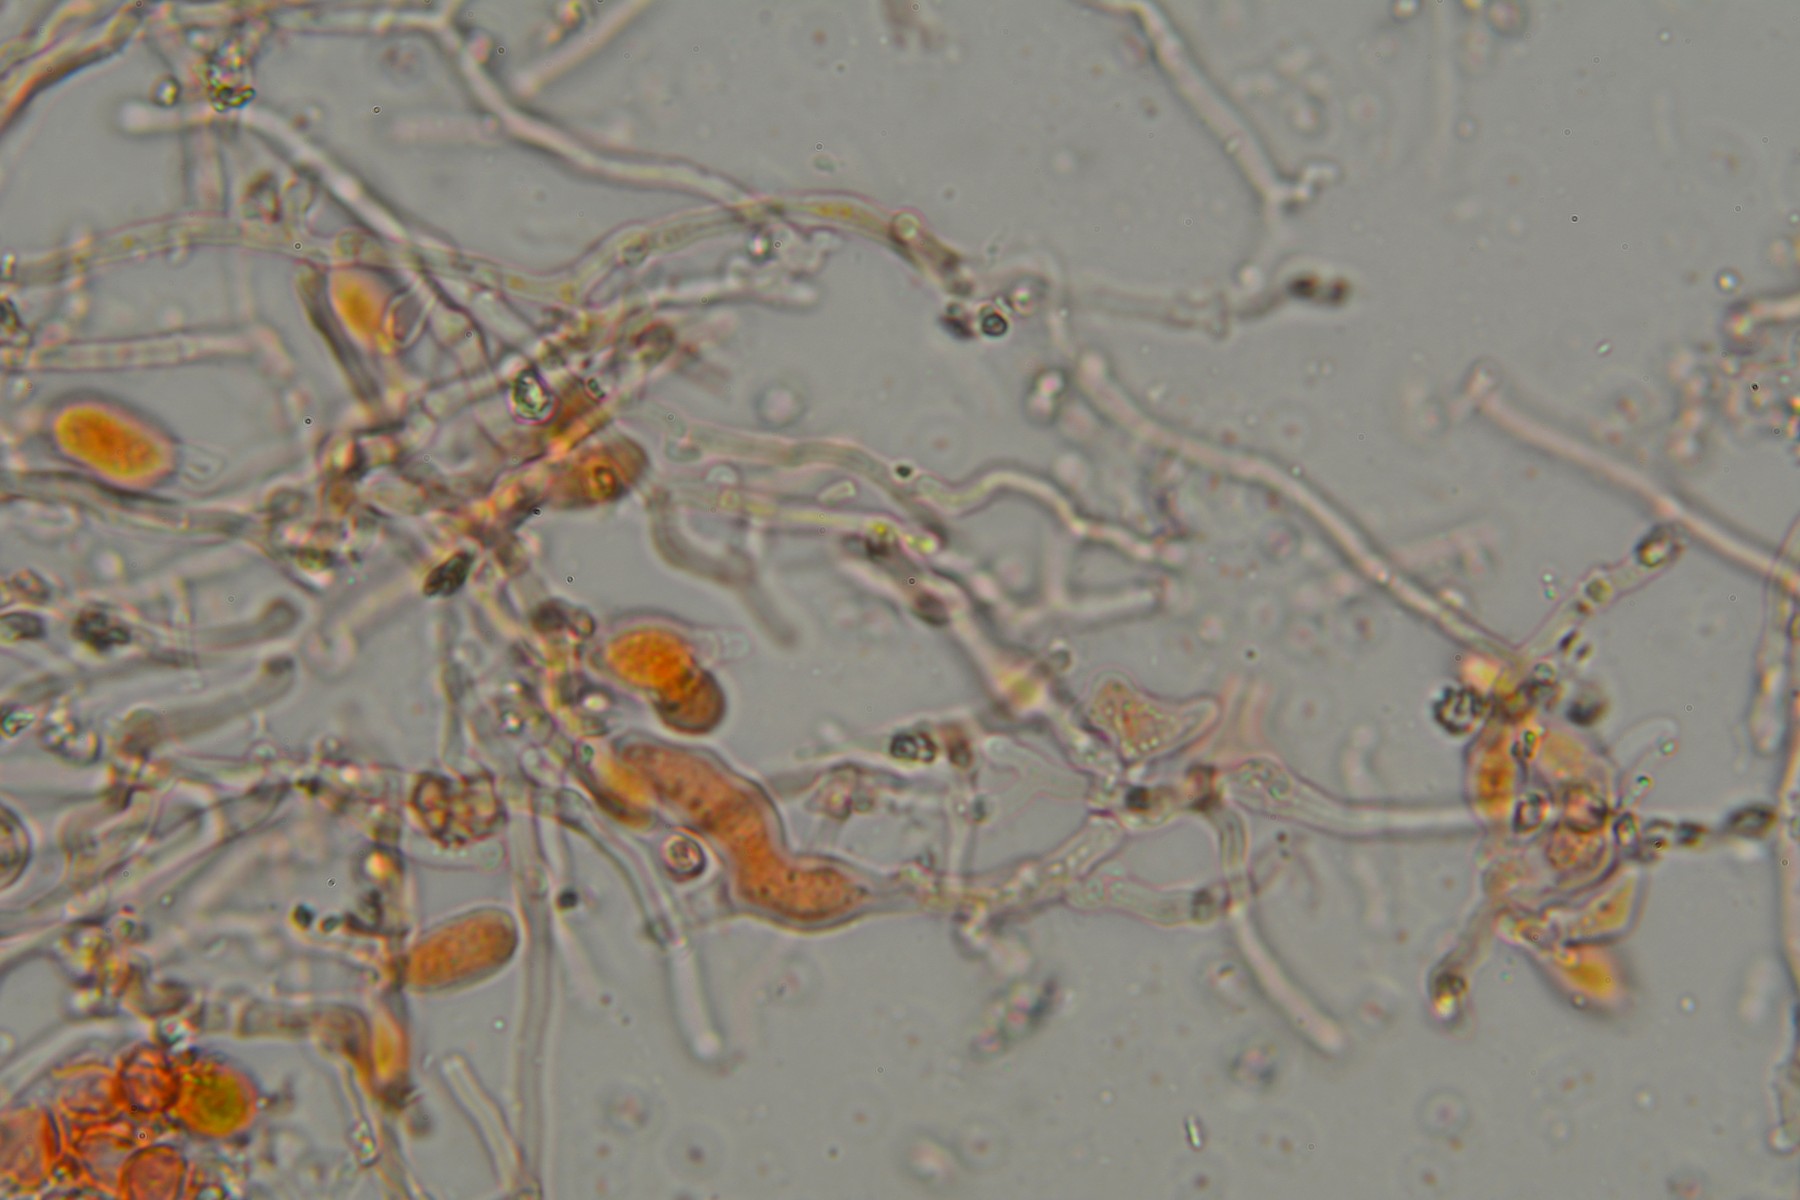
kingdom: Fungi
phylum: Basidiomycota
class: Agaricomycetes
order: Corticiales
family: Corticiaceae
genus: Corticium
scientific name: Corticium roseum
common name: rosa barkskind
